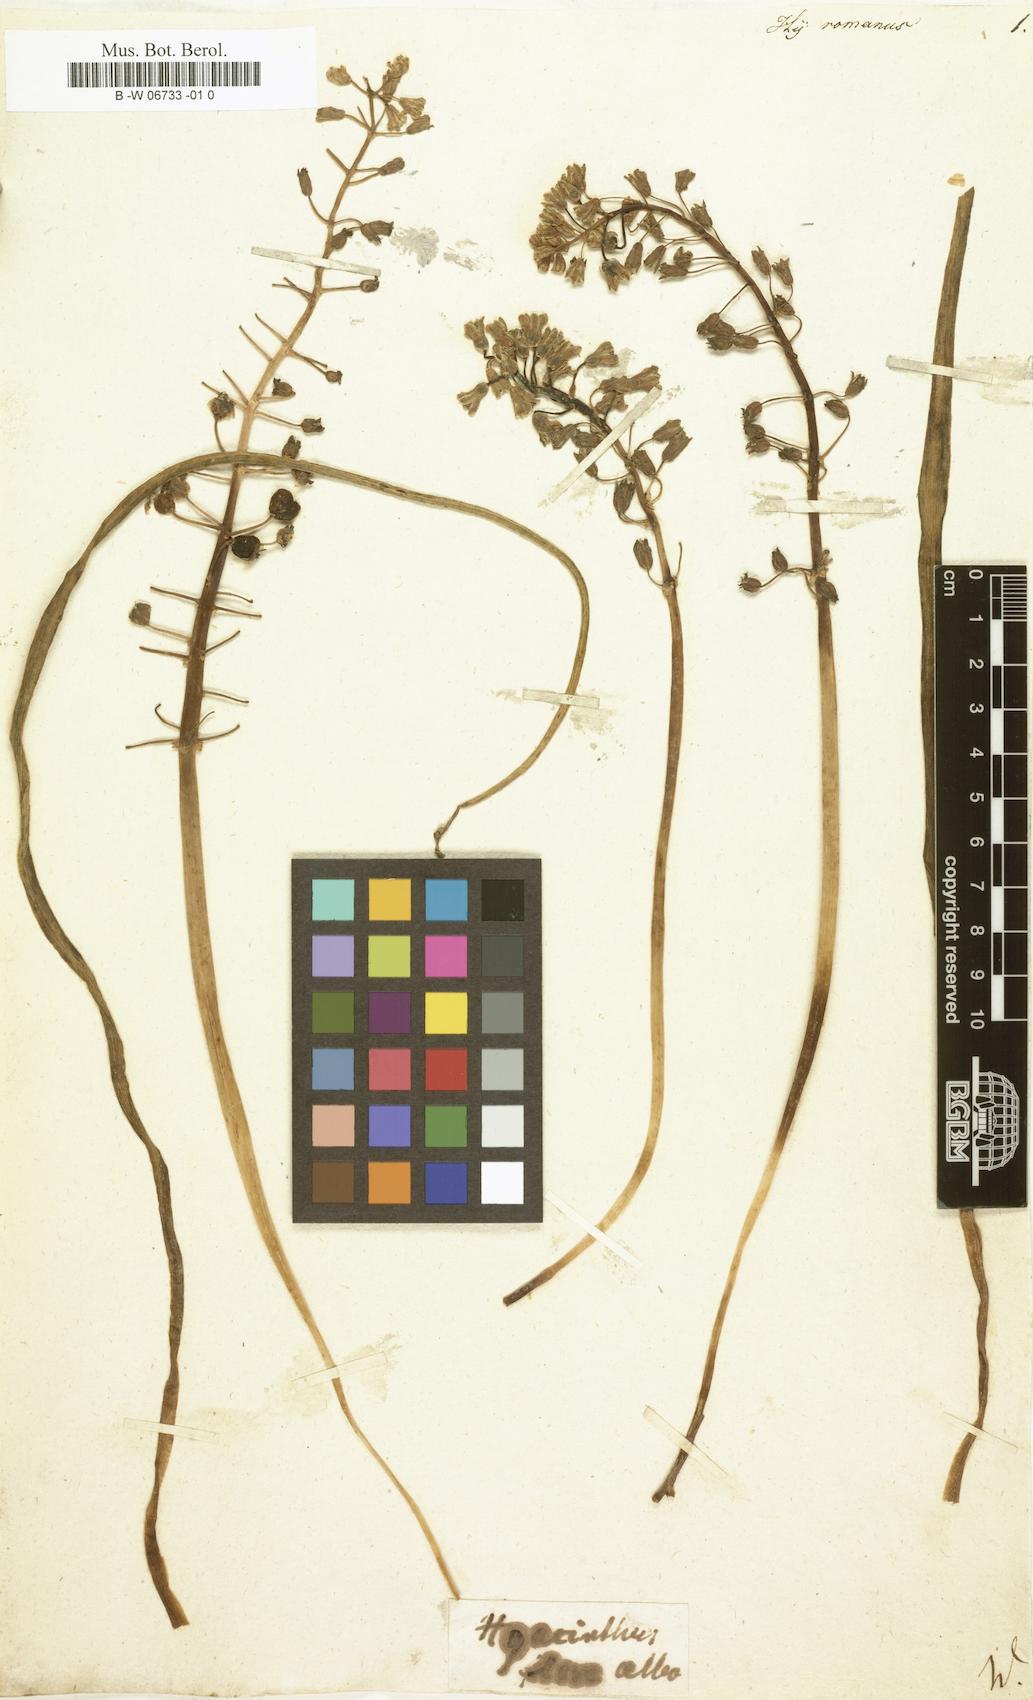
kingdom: Plantae
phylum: Tracheophyta
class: Liliopsida
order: Asparagales
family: Asparagaceae
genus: Hyacinthus
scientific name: Hyacinthus romanus
